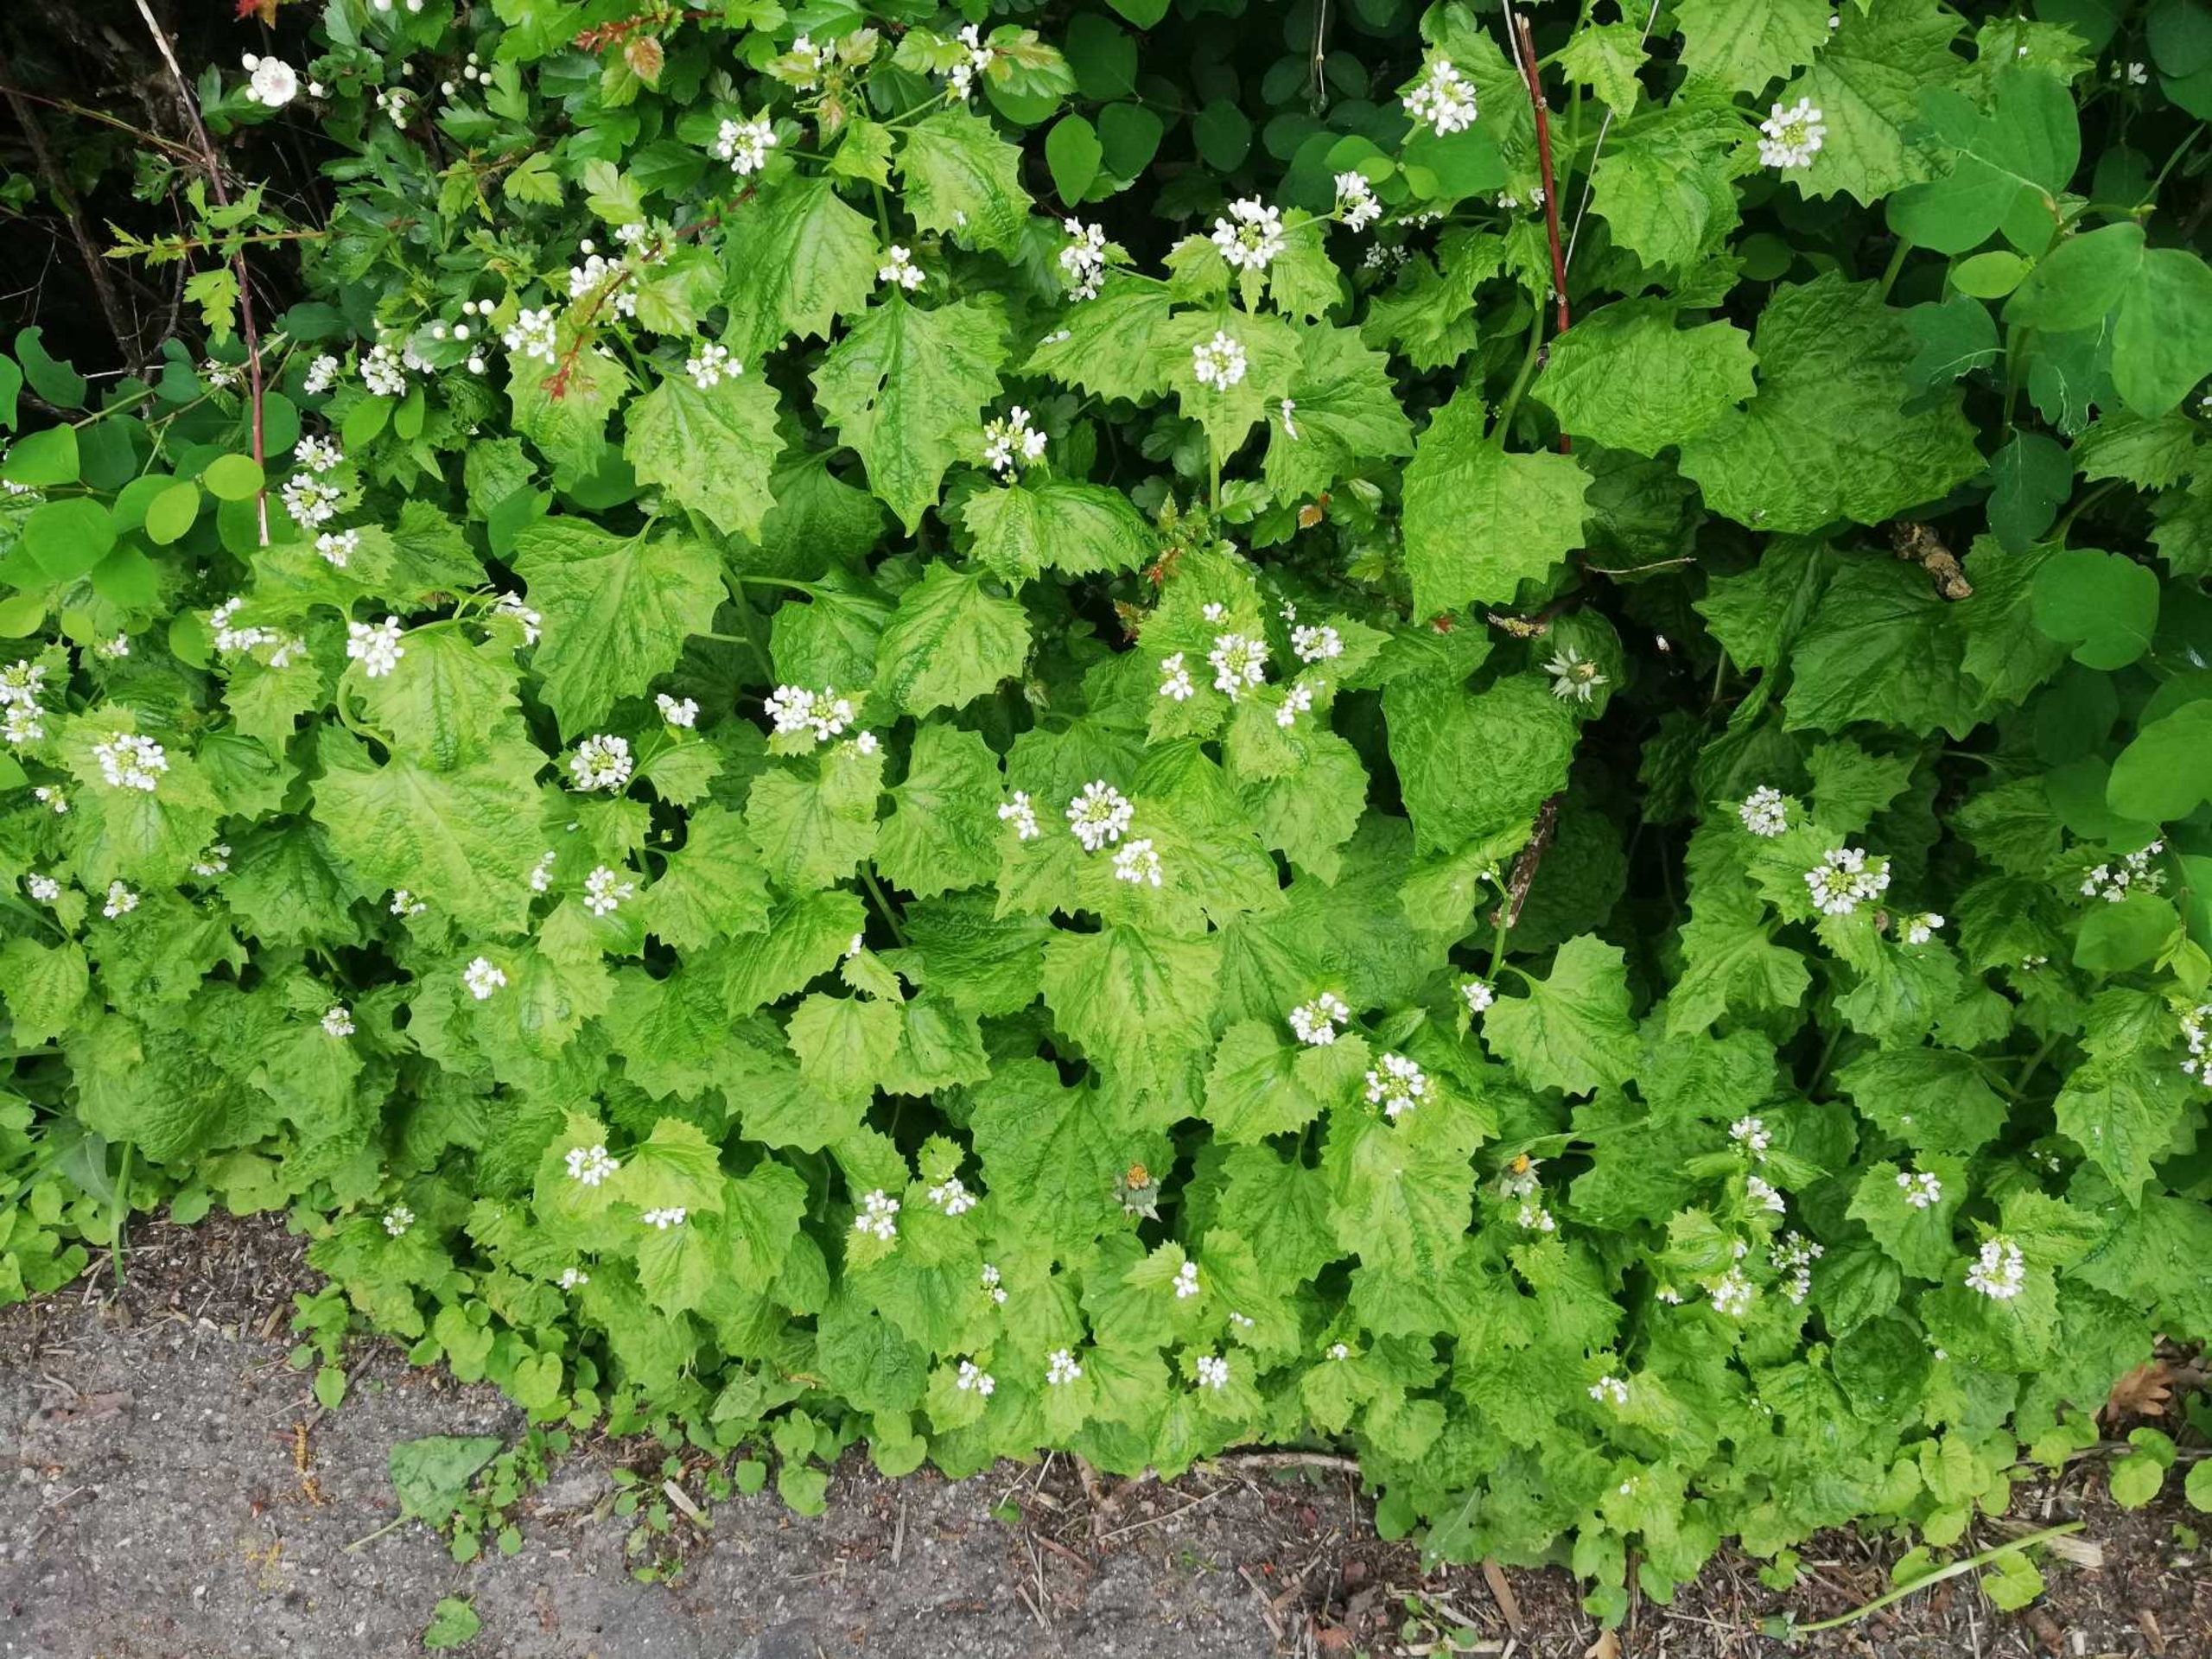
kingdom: Plantae
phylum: Tracheophyta
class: Magnoliopsida
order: Brassicales
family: Brassicaceae
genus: Alliaria
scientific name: Alliaria petiolata
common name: Løgkarse
